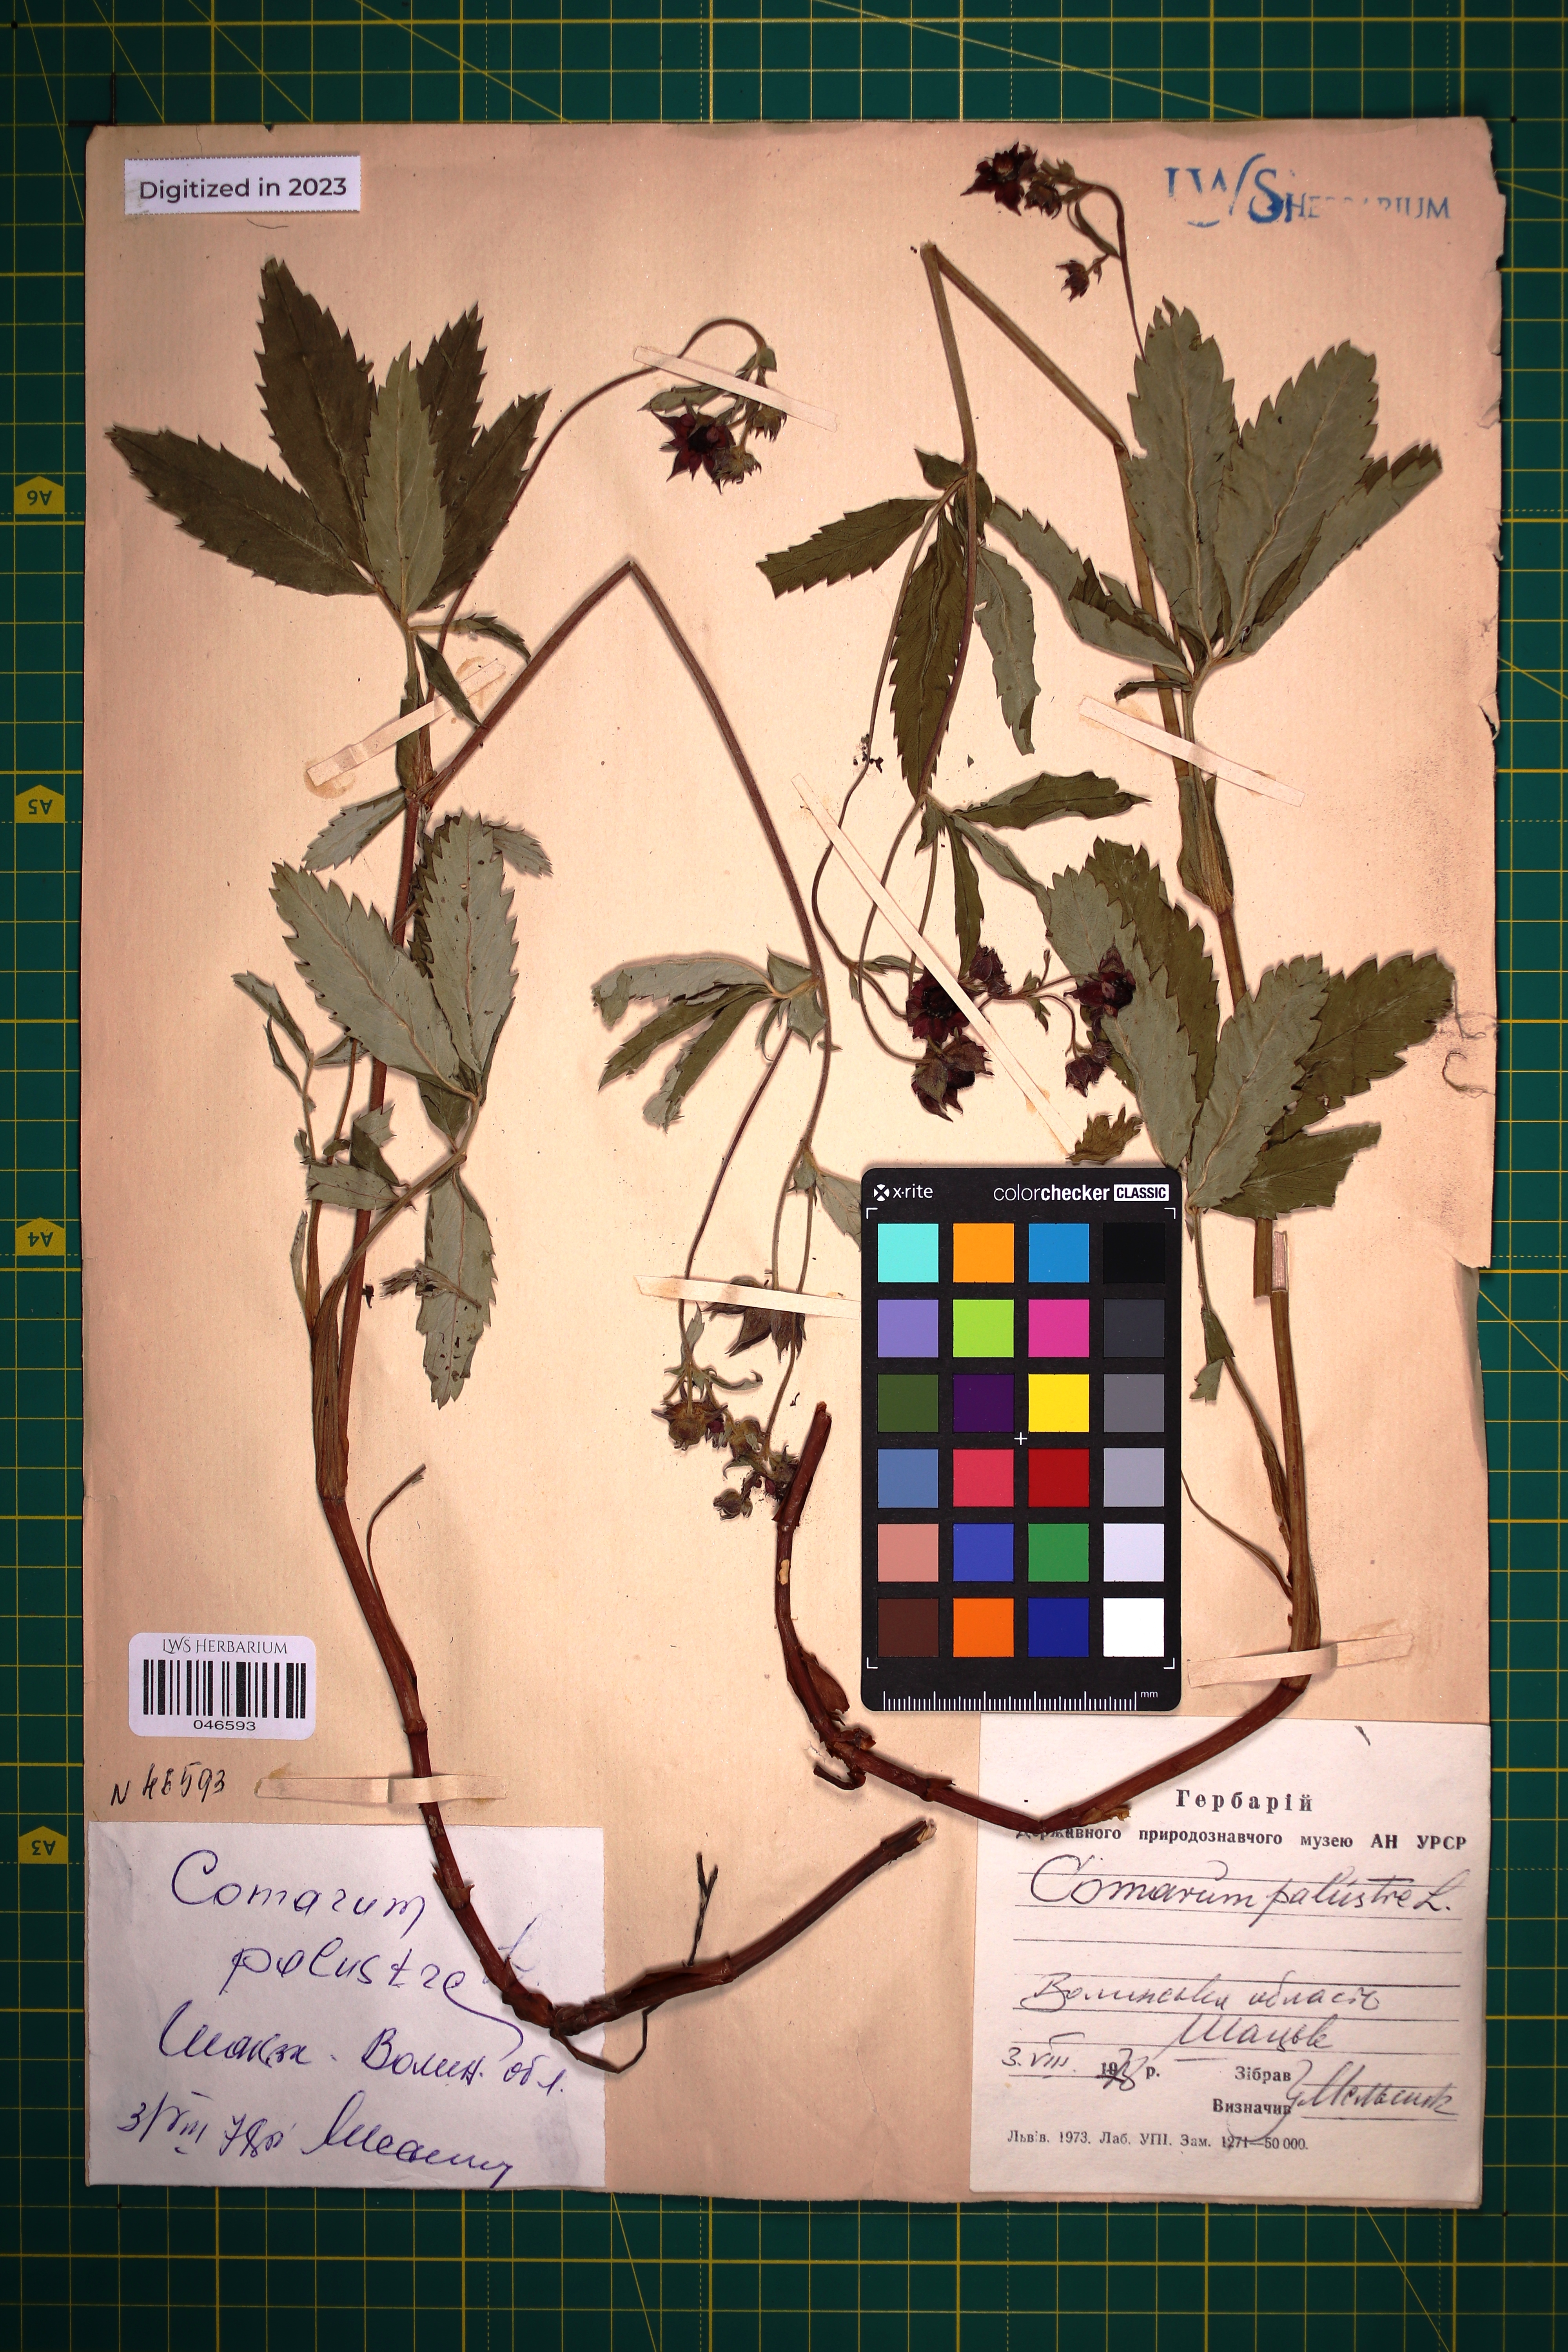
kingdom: Plantae
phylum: Tracheophyta
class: Magnoliopsida
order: Rosales
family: Rosaceae
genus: Comarum
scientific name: Comarum palustre
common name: Marsh cinquefoil
